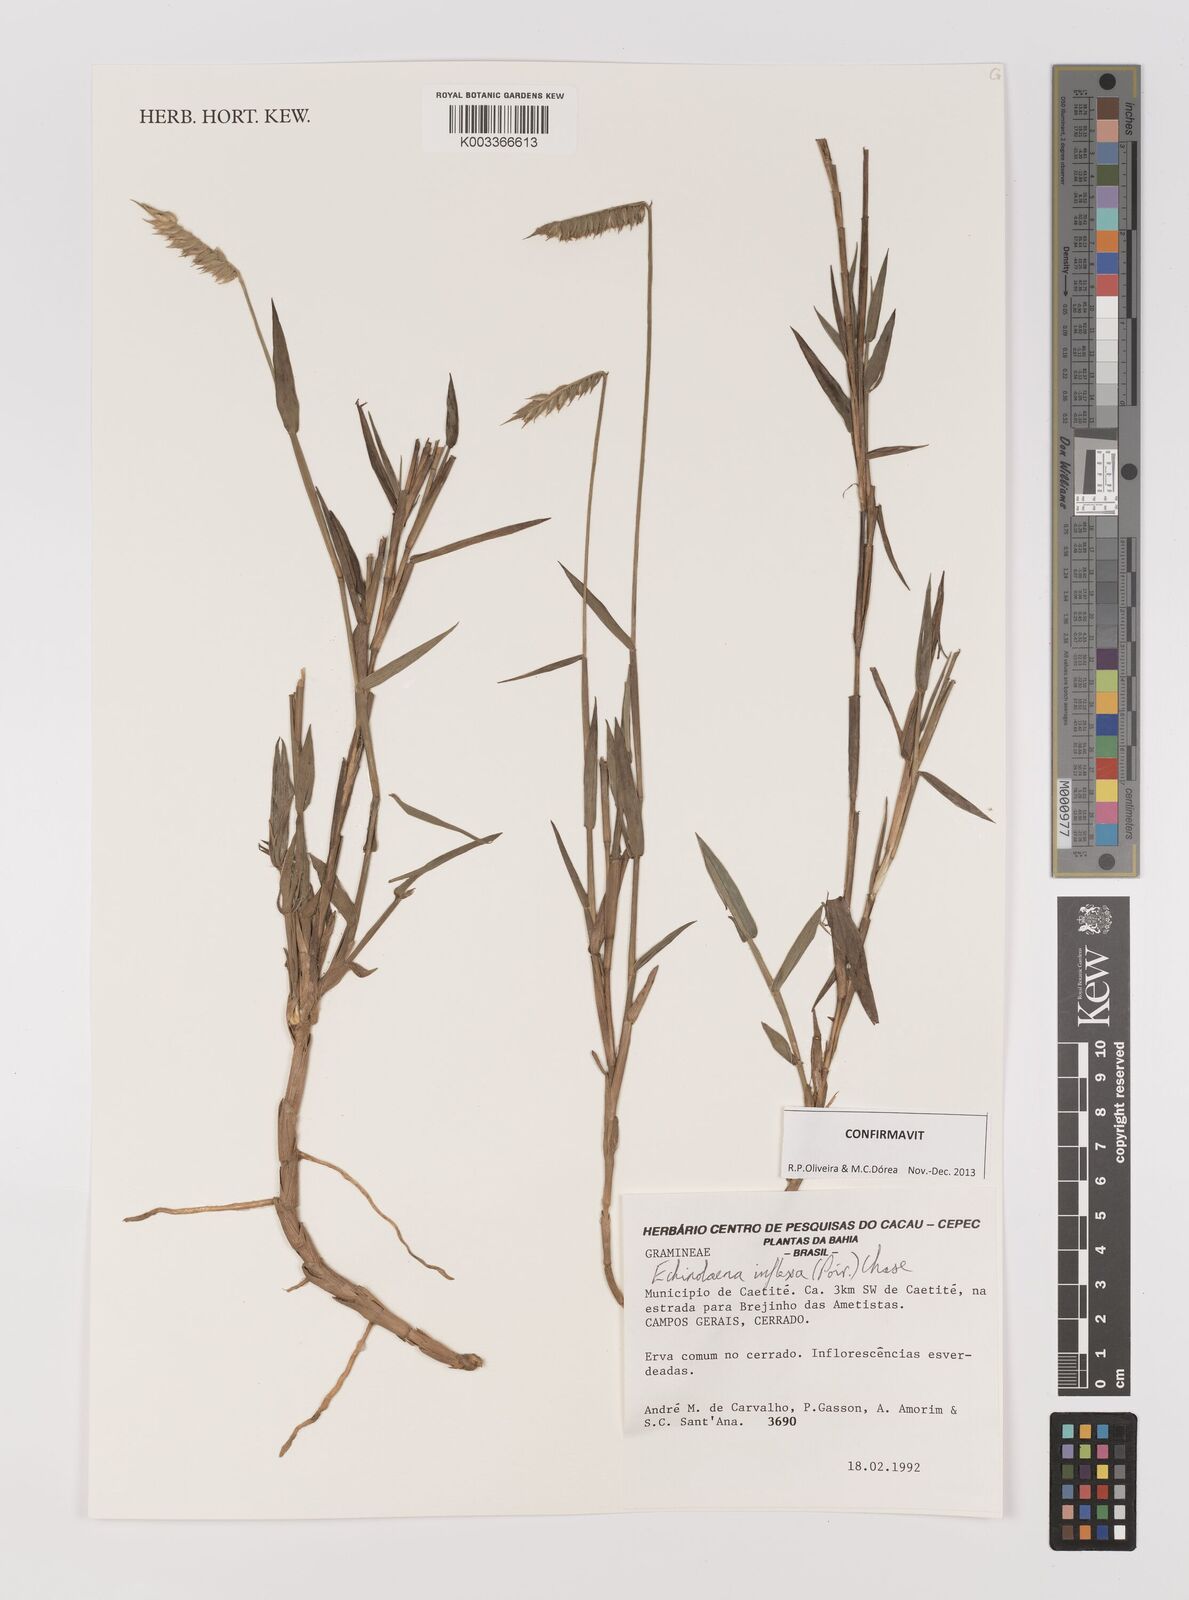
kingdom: Plantae
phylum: Tracheophyta
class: Liliopsida
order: Poales
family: Poaceae
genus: Echinolaena
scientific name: Echinolaena inflexa
